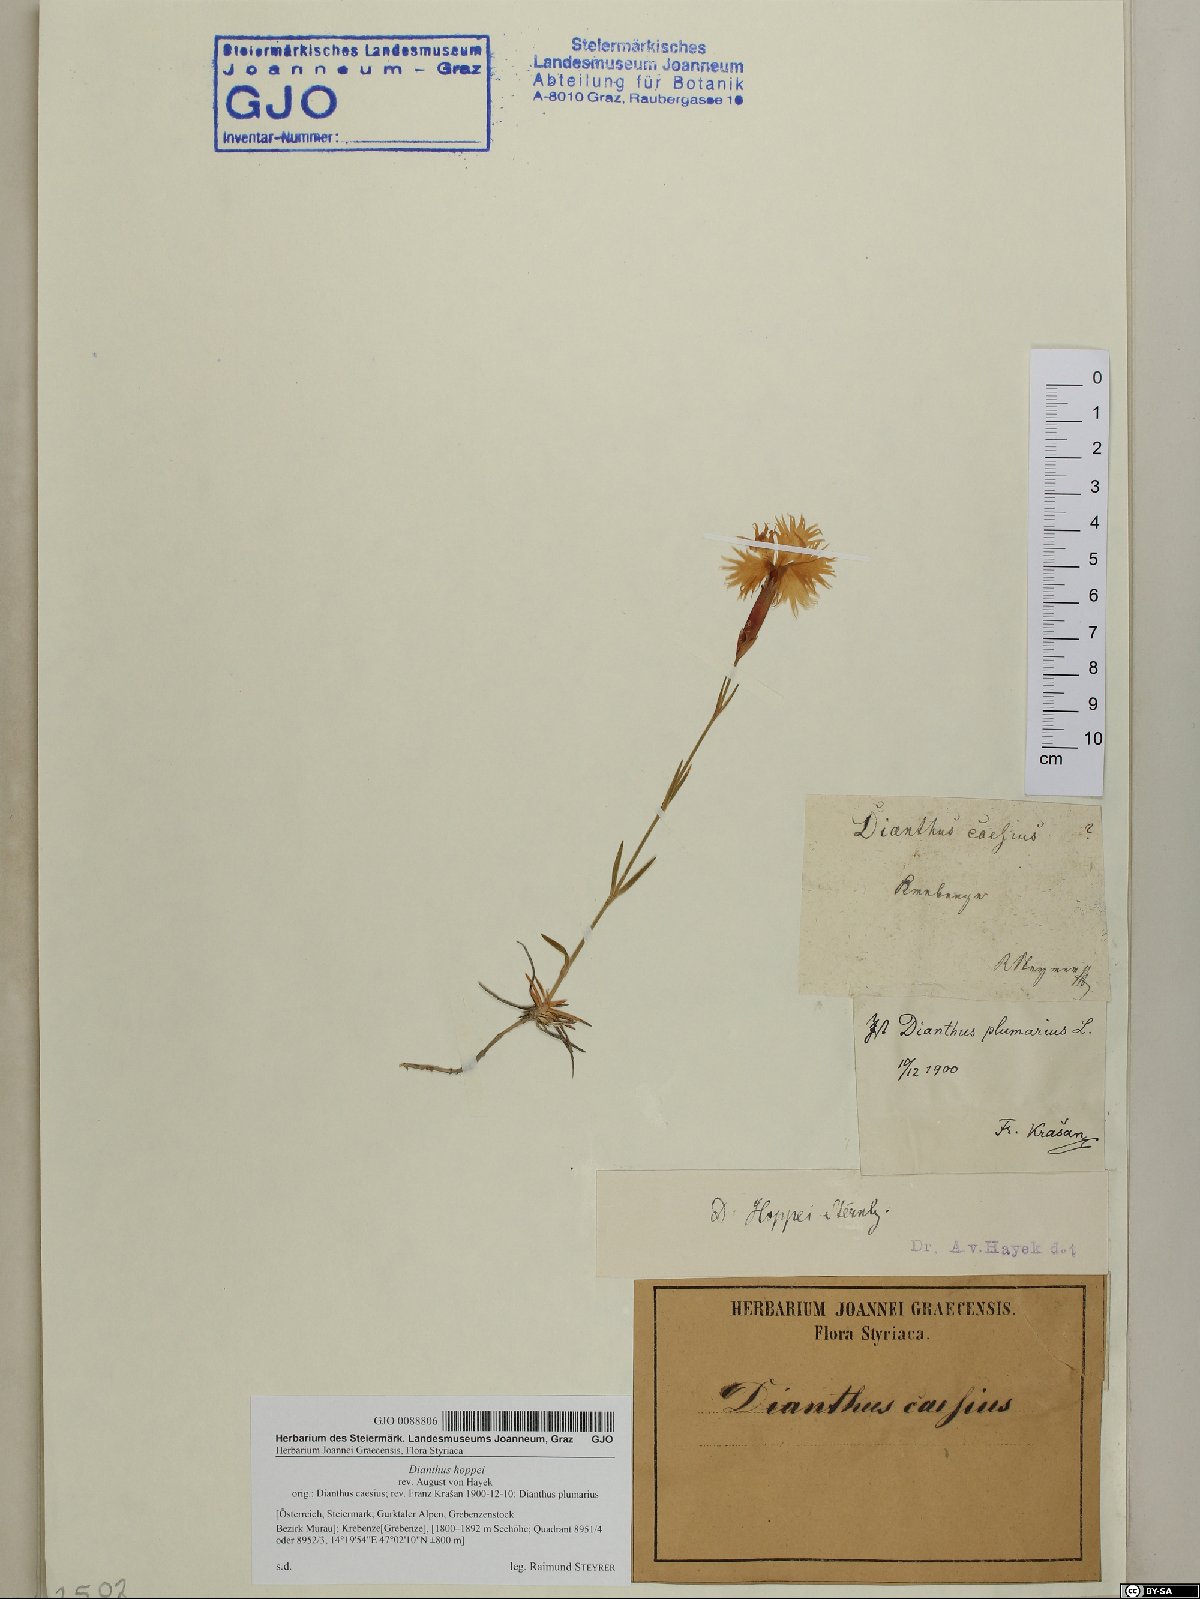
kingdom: Plantae
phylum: Tracheophyta
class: Magnoliopsida
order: Caryophyllales
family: Caryophyllaceae
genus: Dianthus
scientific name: Dianthus plumarius
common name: Pink
